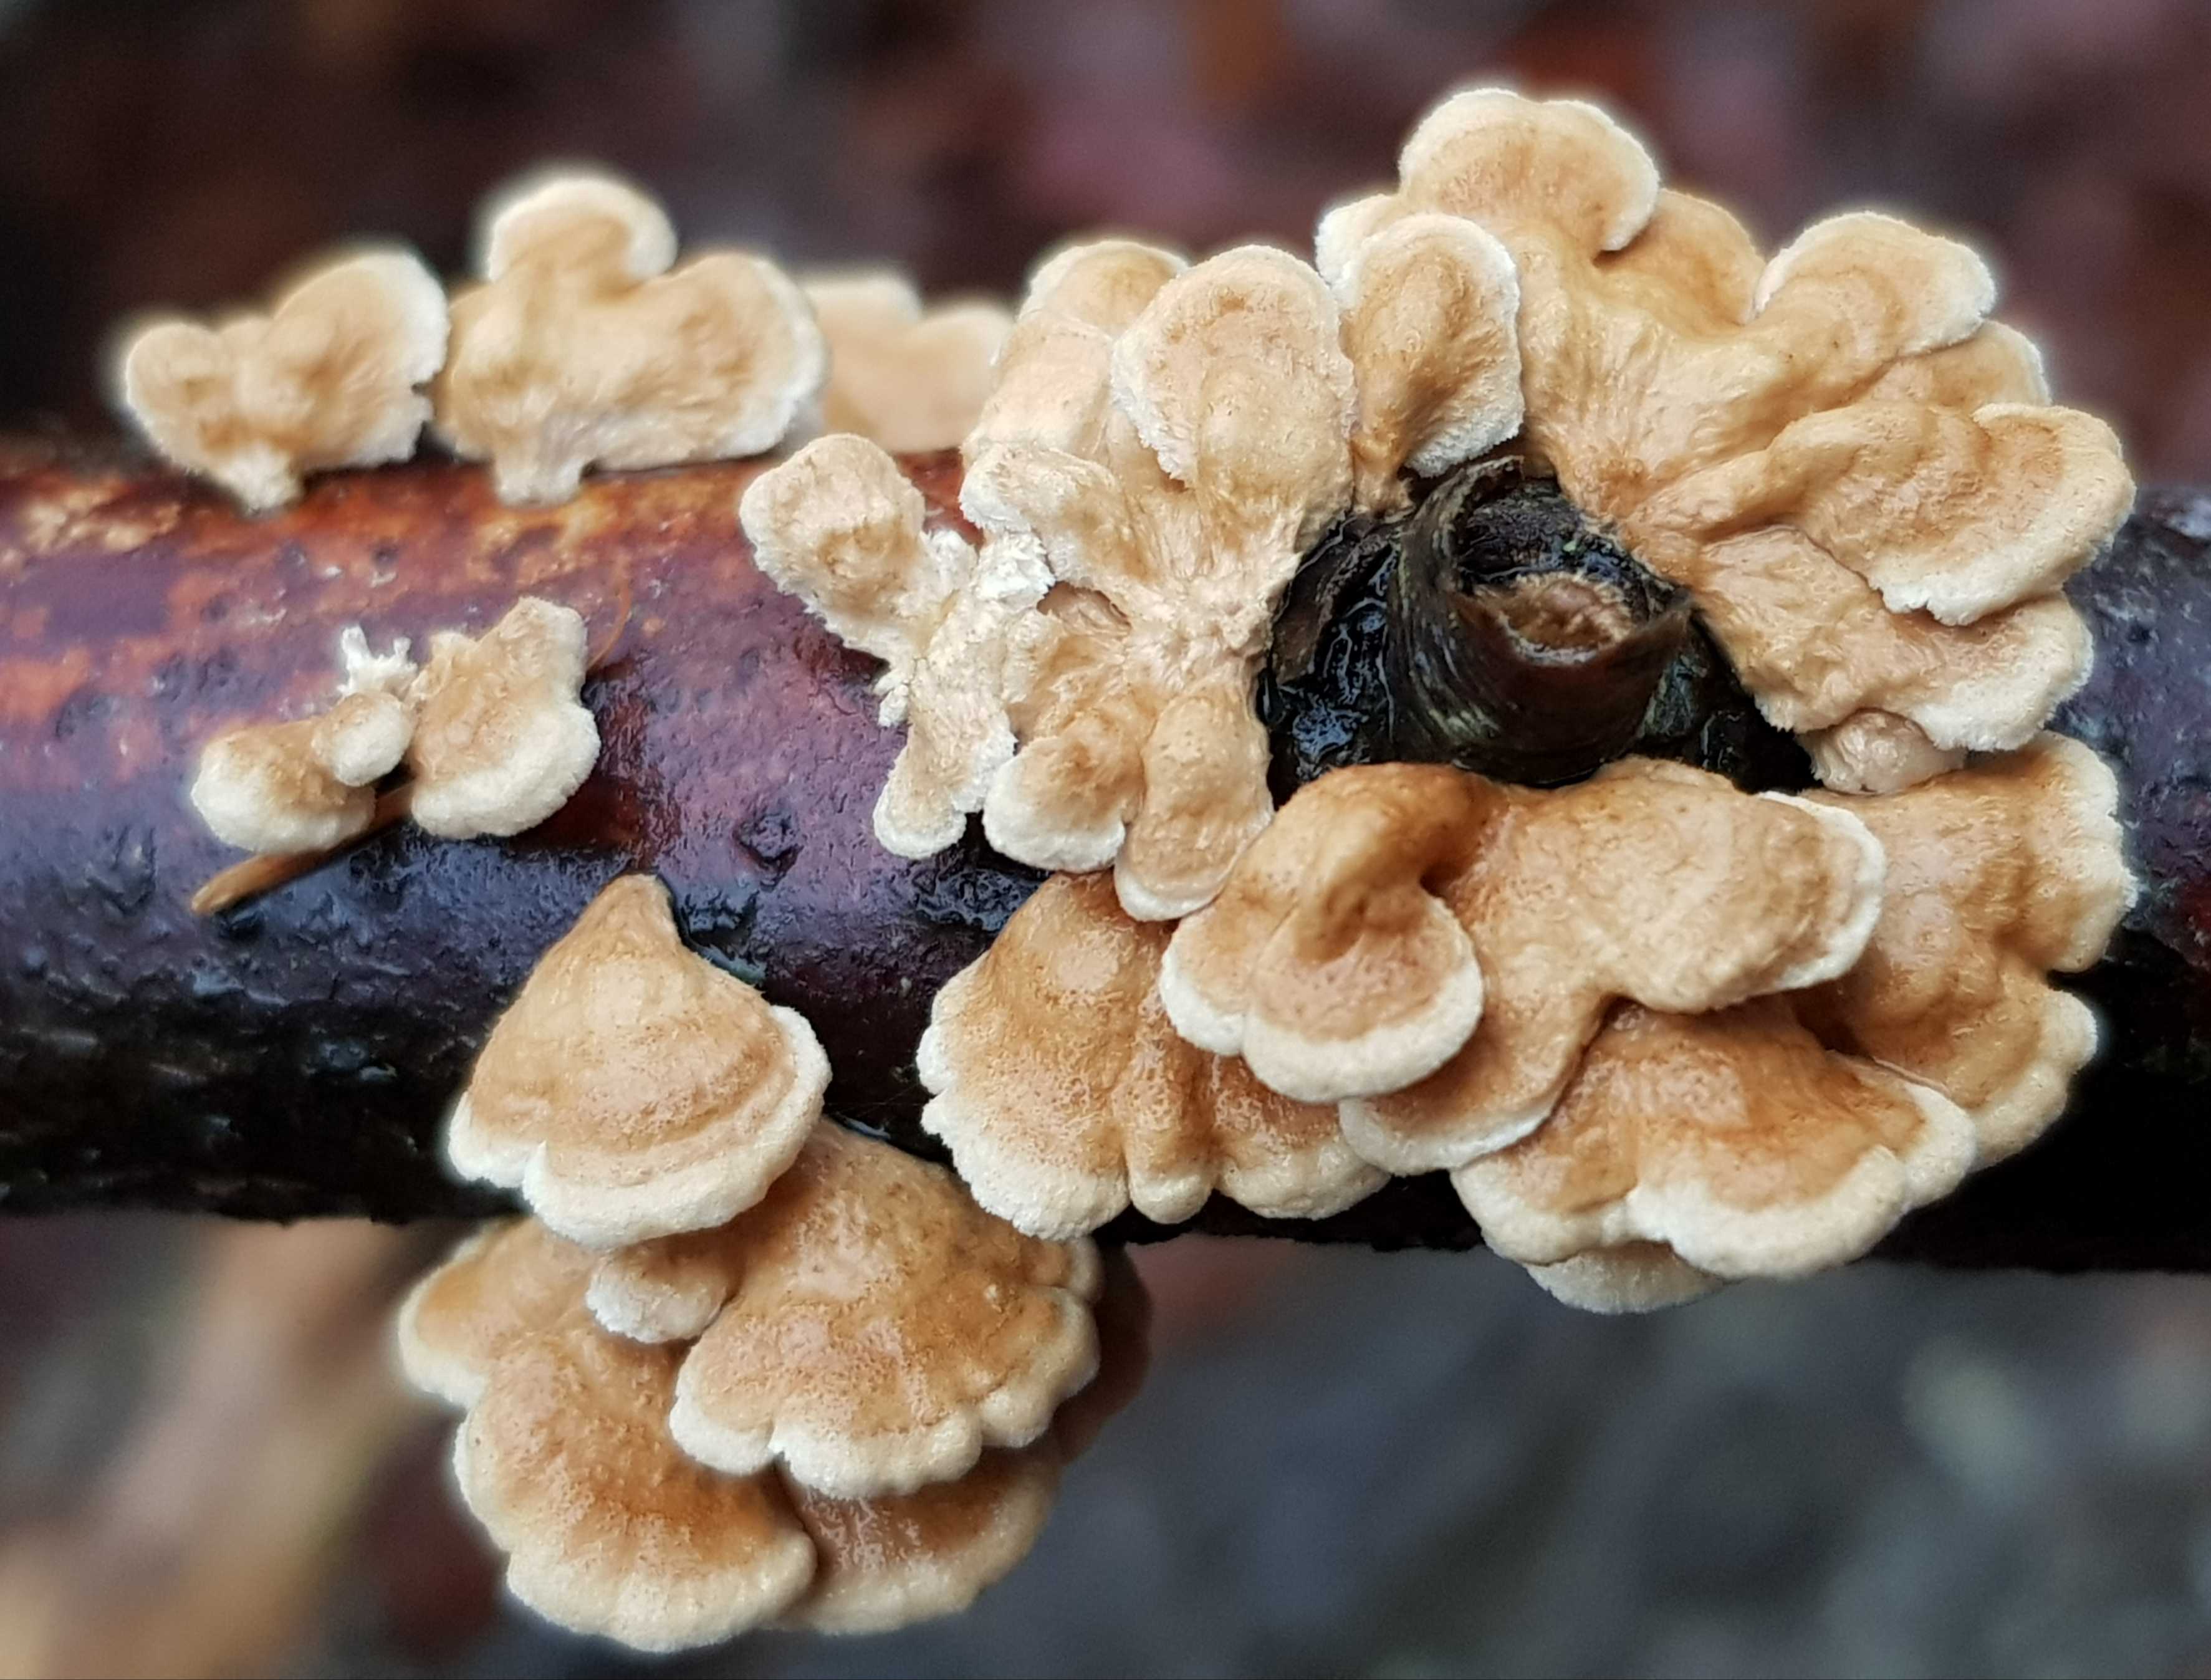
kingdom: Fungi
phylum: Basidiomycota
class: Agaricomycetes
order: Amylocorticiales
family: Amylocorticiaceae
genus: Plicaturopsis
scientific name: Plicaturopsis crispa
